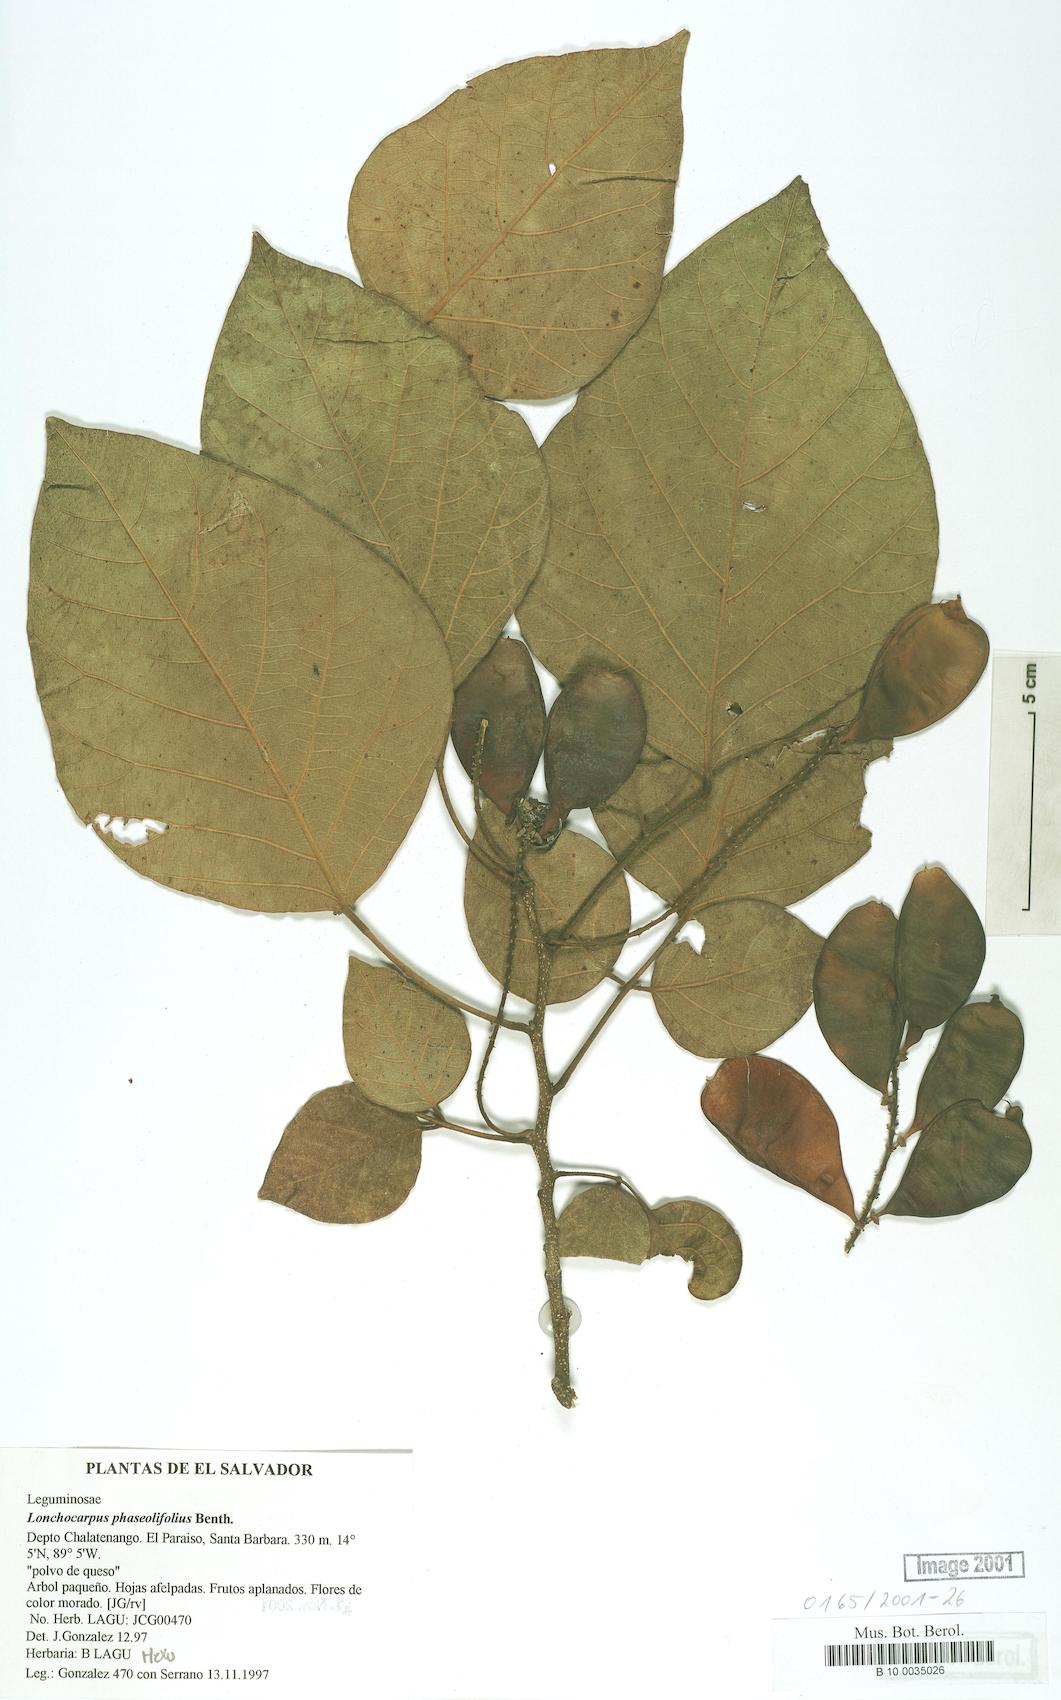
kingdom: Plantae
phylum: Tracheophyta
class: Magnoliopsida
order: Fabales
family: Fabaceae
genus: Lonchocarpus
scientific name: Lonchocarpus phaseolifolius
